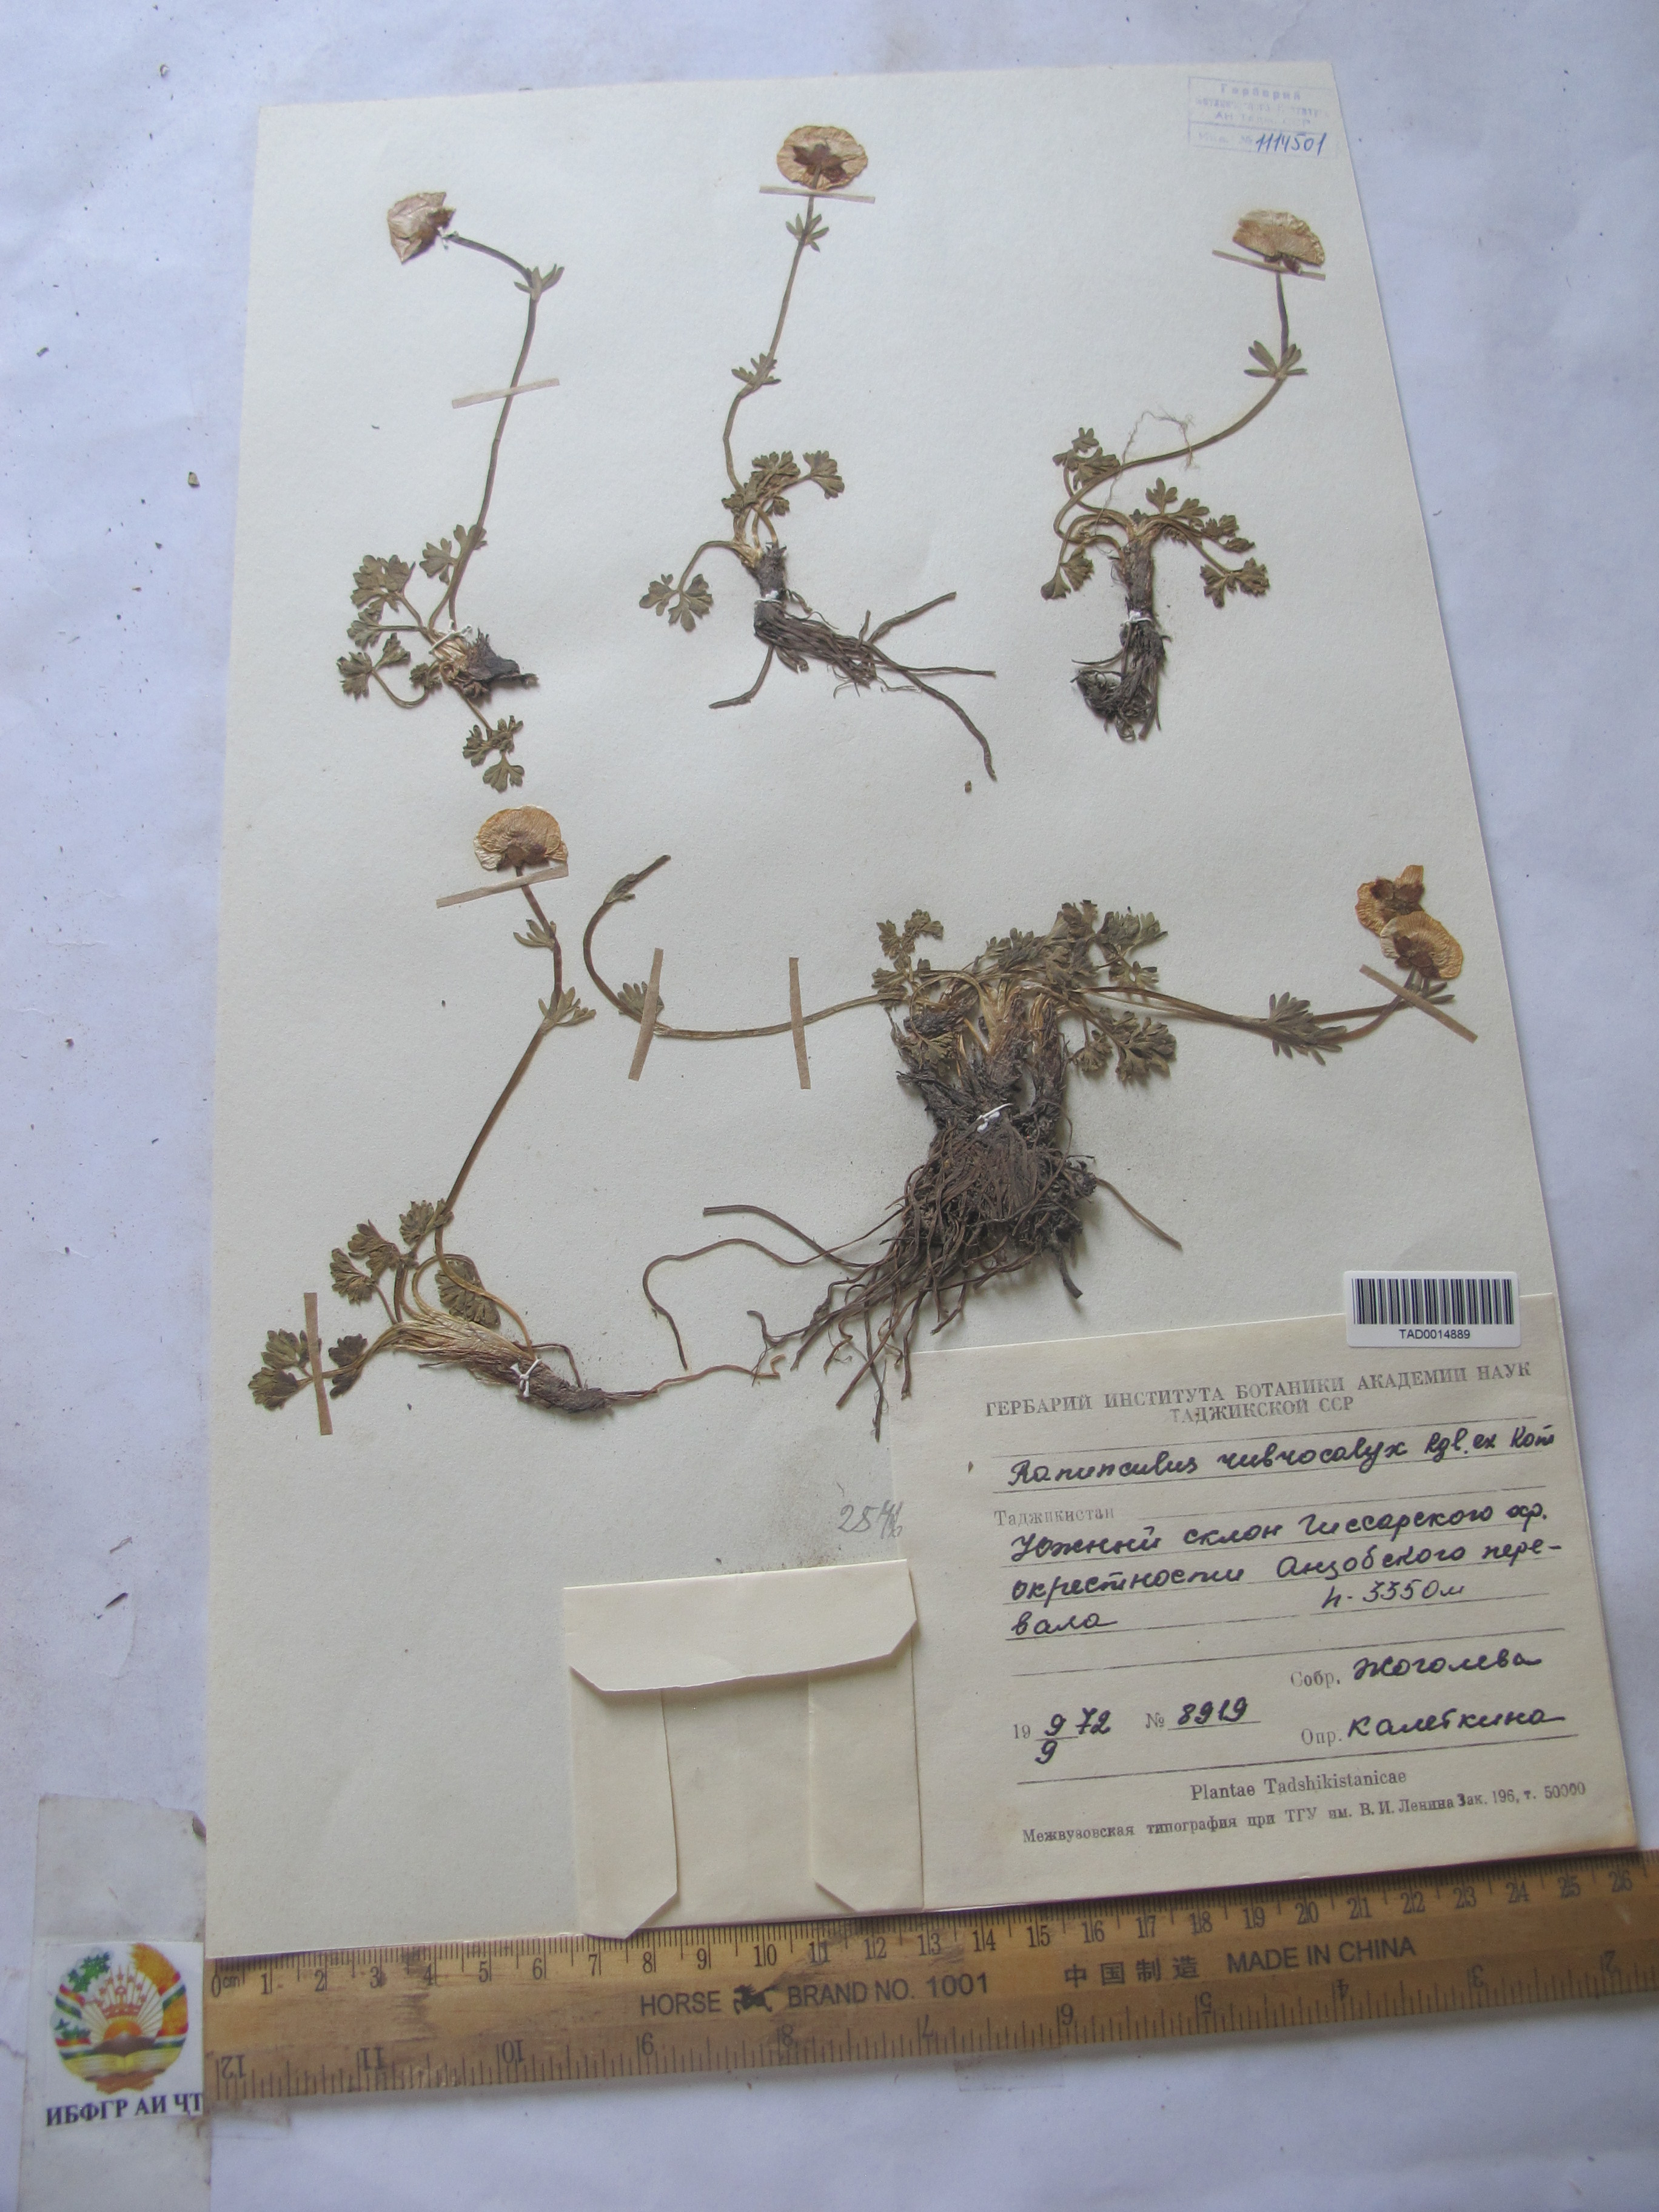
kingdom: Plantae
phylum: Tracheophyta
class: Magnoliopsida
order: Ranunculales
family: Ranunculaceae
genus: Ranunculus
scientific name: Ranunculus
